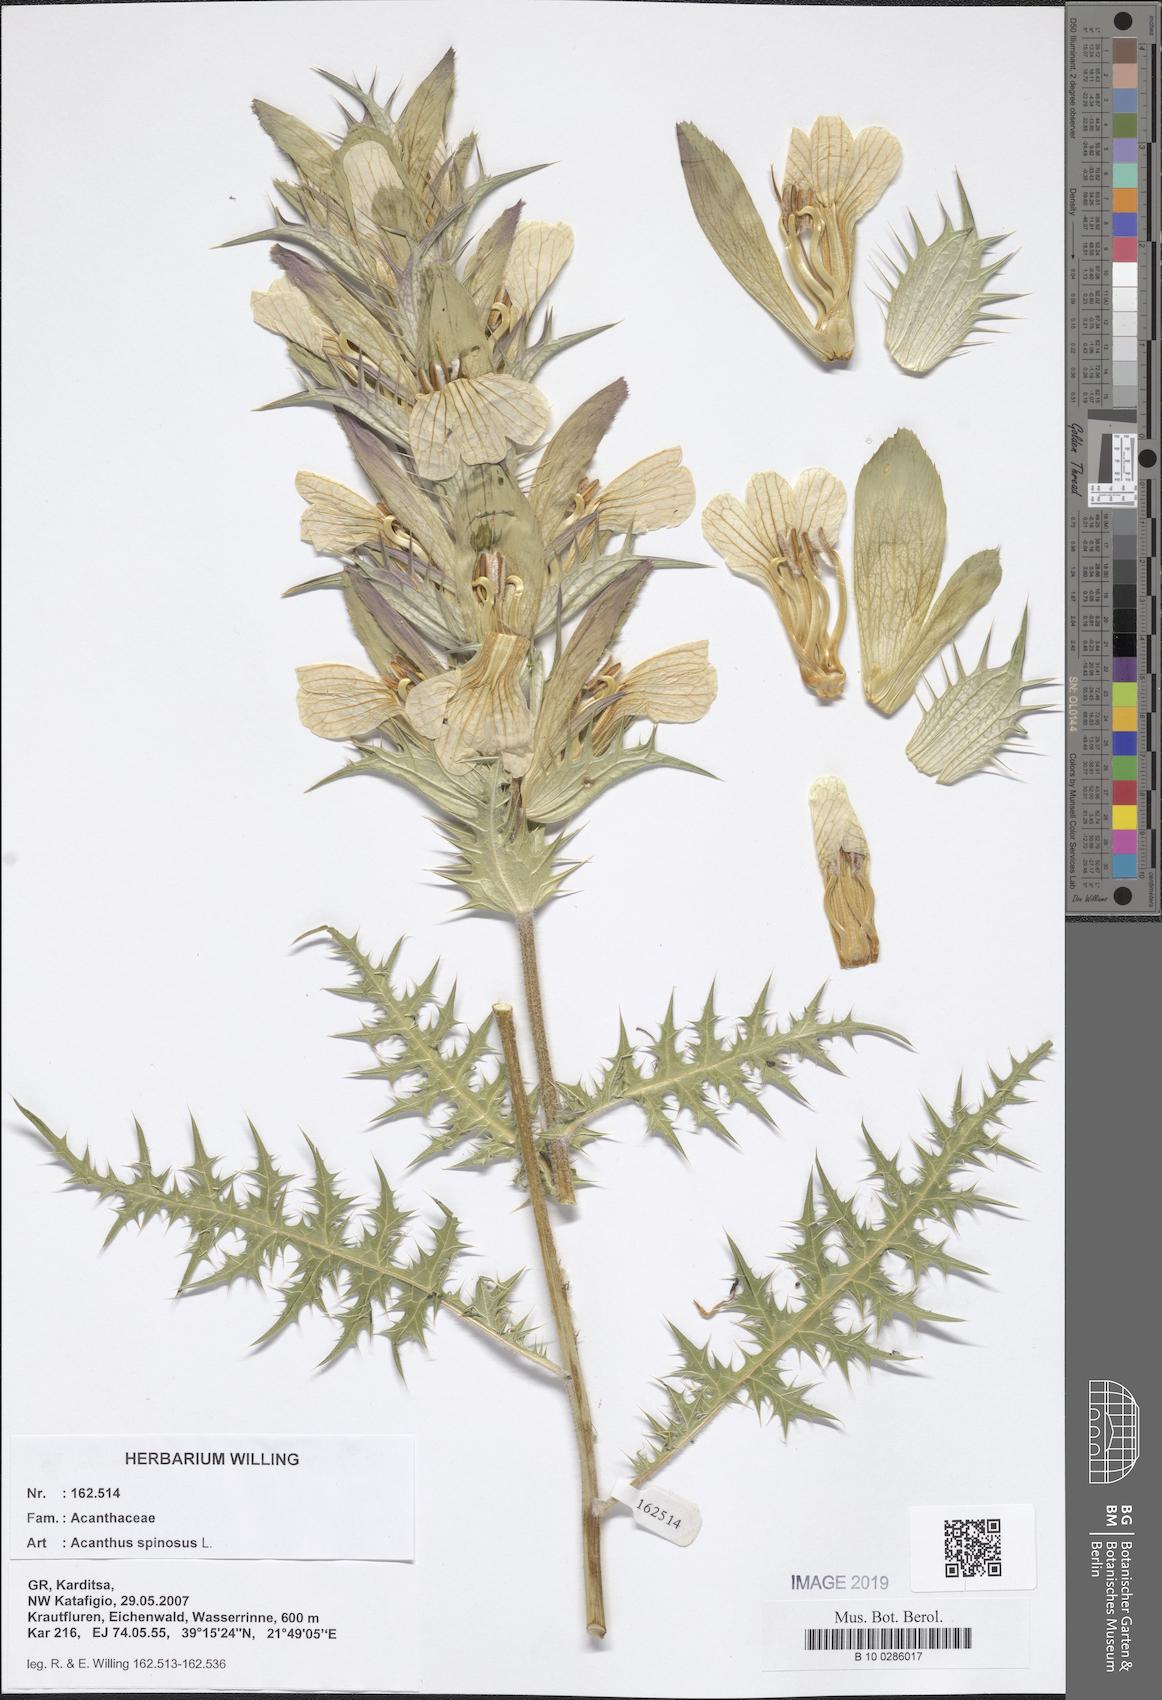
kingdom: Plantae
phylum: Tracheophyta
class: Magnoliopsida
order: Lamiales
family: Acanthaceae
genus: Acanthus
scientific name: Acanthus spinosus
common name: Spiny bear's-breech
